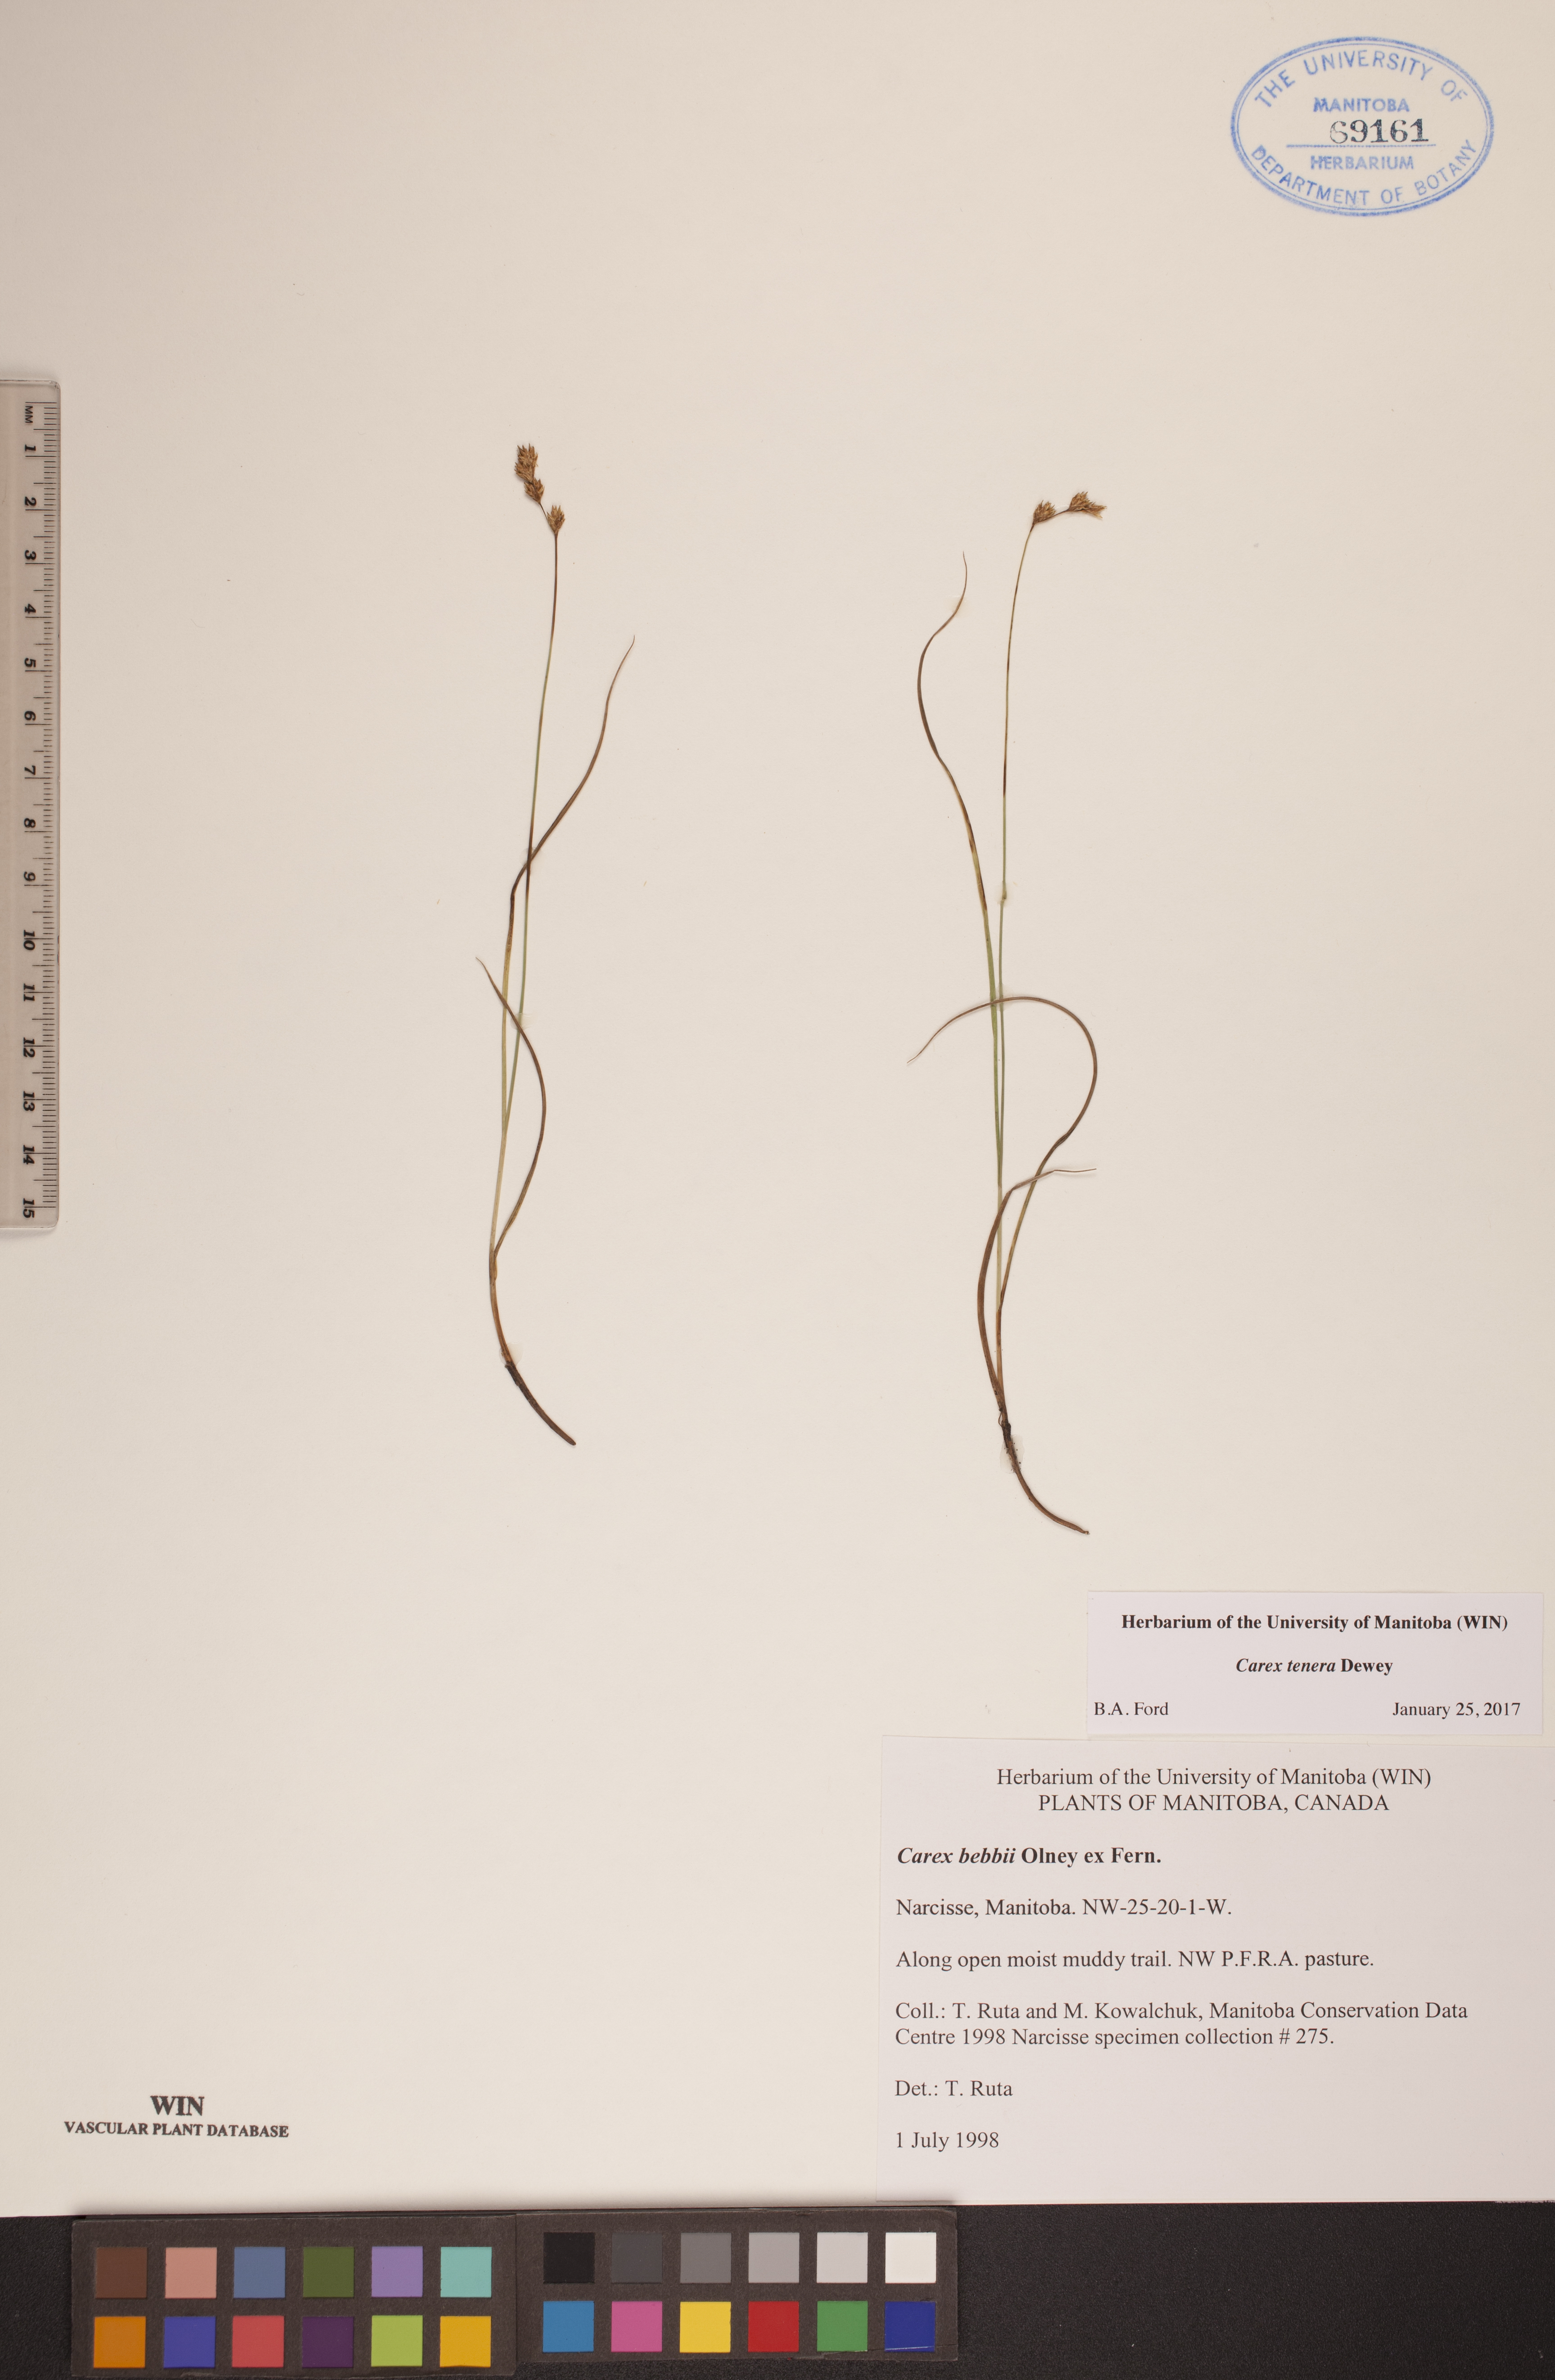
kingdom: Plantae
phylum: Tracheophyta
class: Liliopsida
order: Poales
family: Cyperaceae
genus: Carex
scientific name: Carex tenera
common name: Broad-fruited sedge
